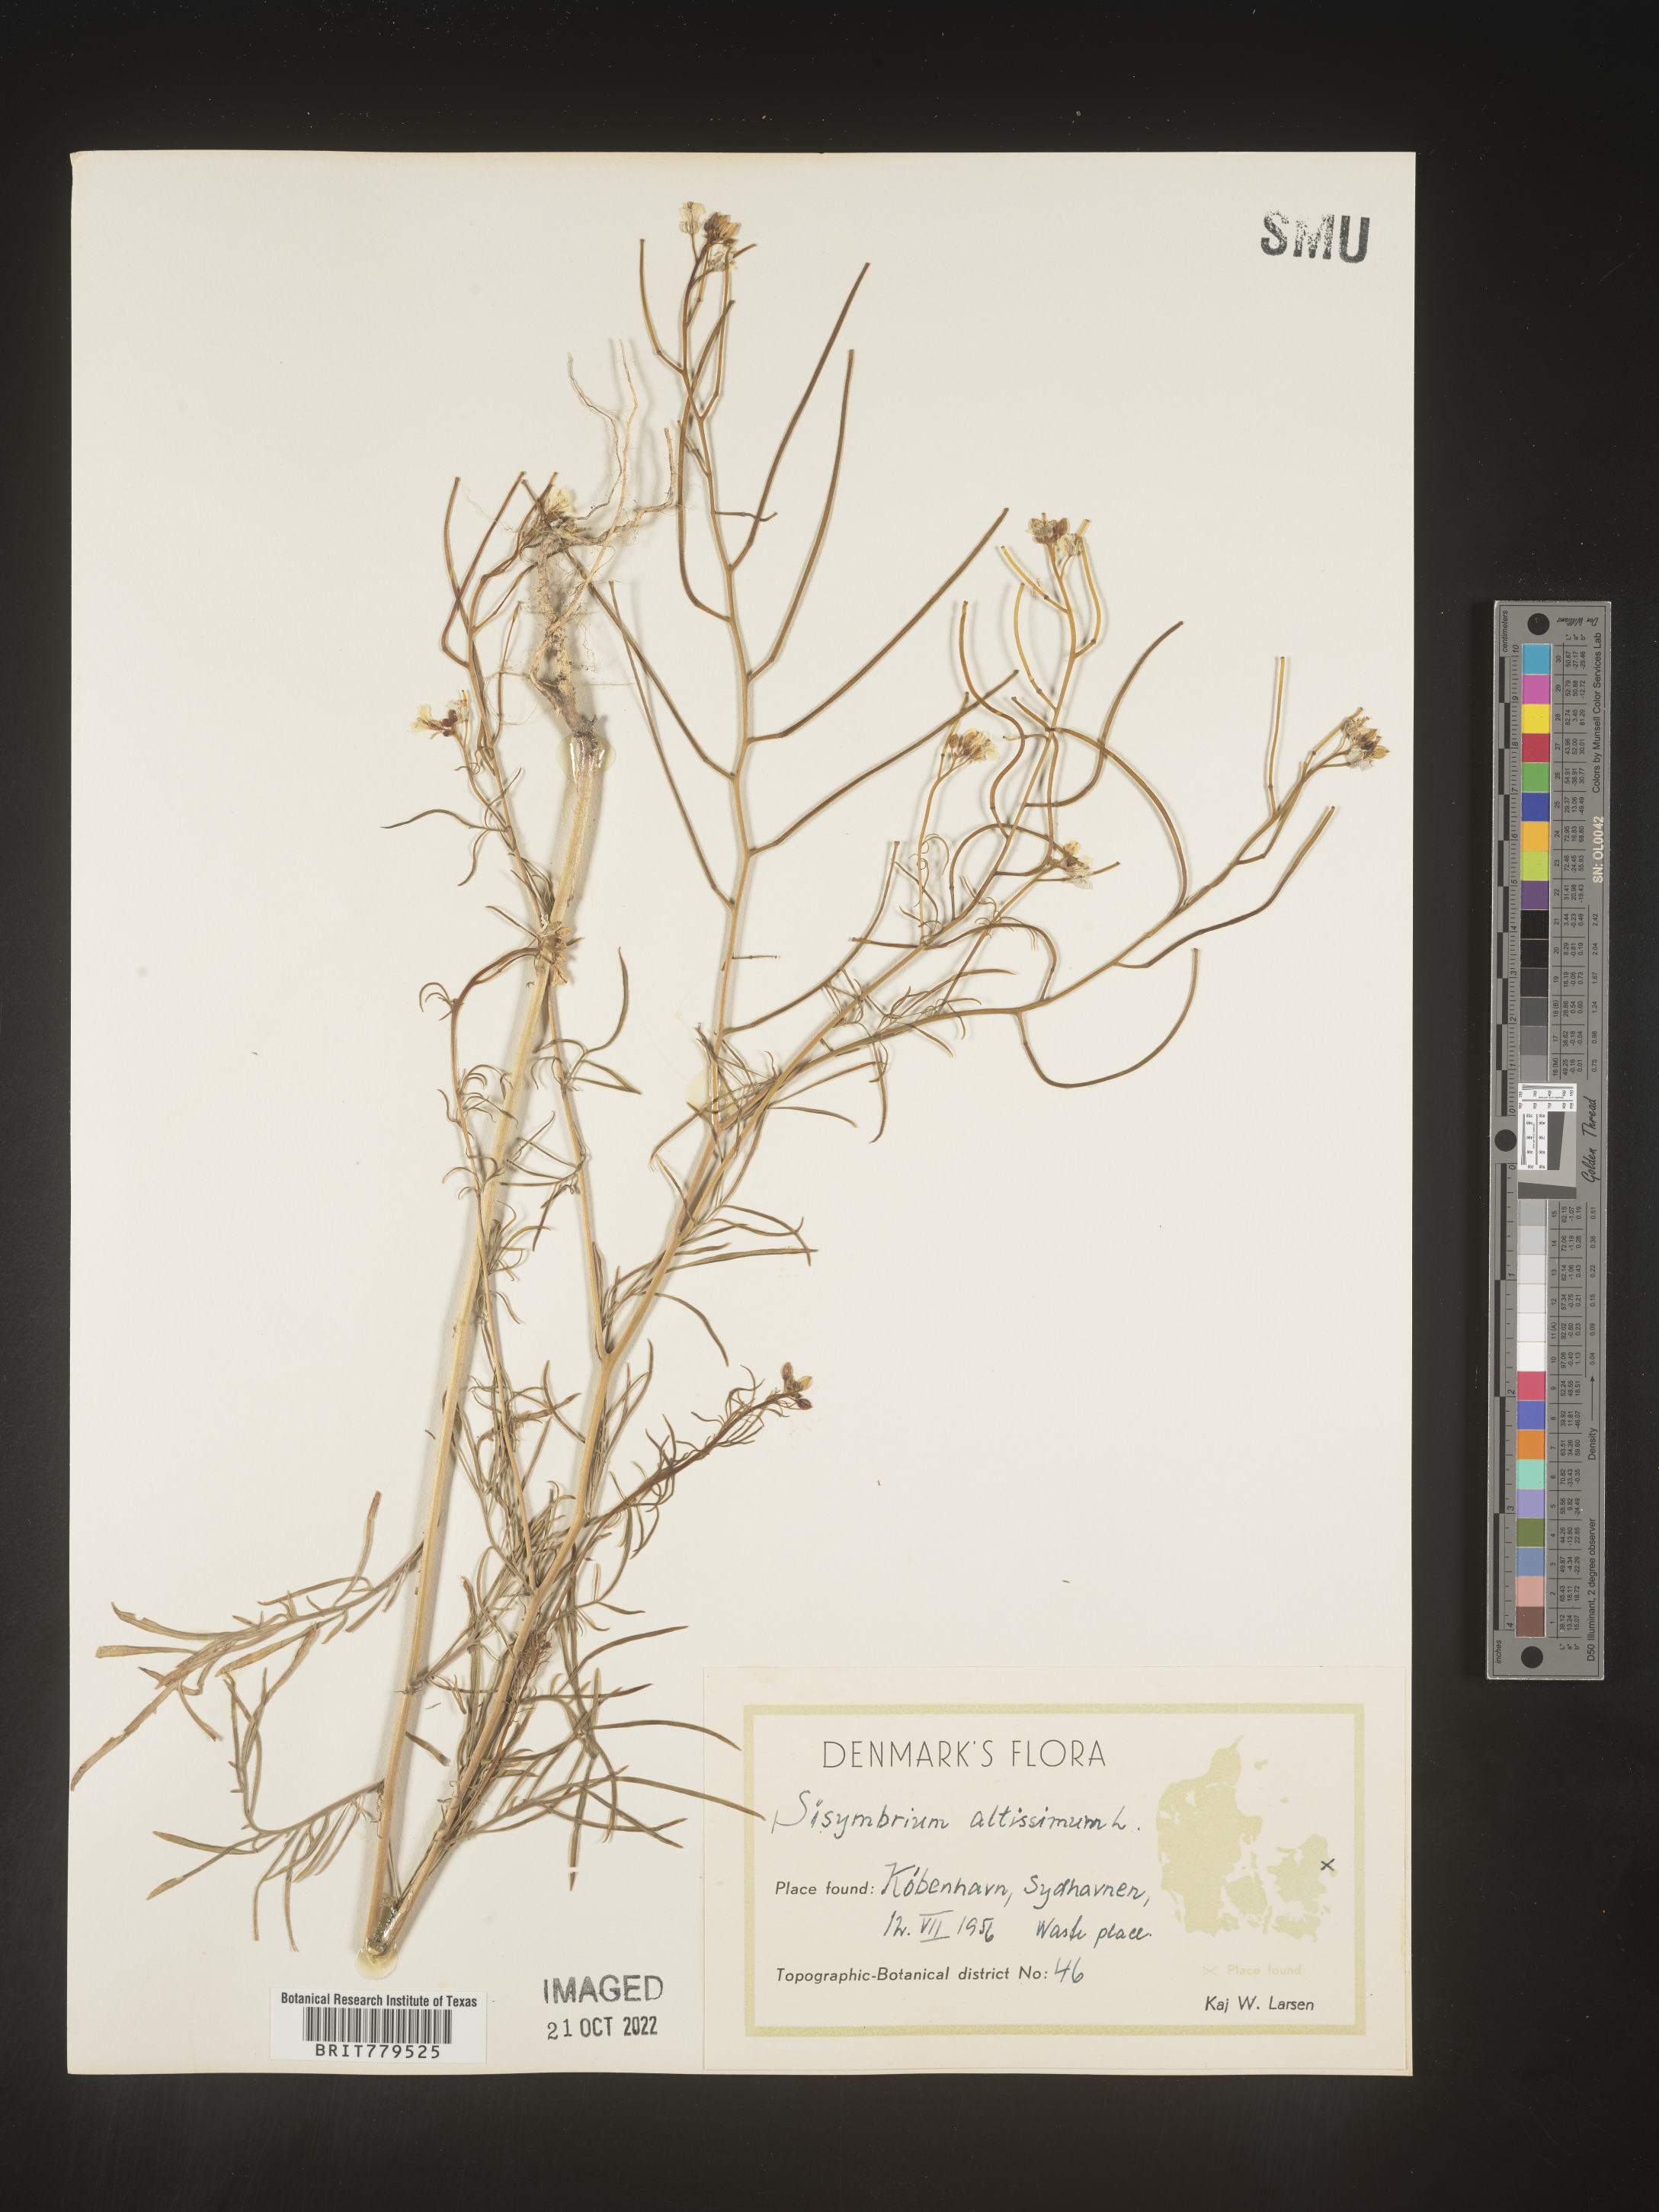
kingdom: Plantae
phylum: Tracheophyta
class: Magnoliopsida
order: Brassicales
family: Brassicaceae
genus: Sisymbrium
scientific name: Sisymbrium
